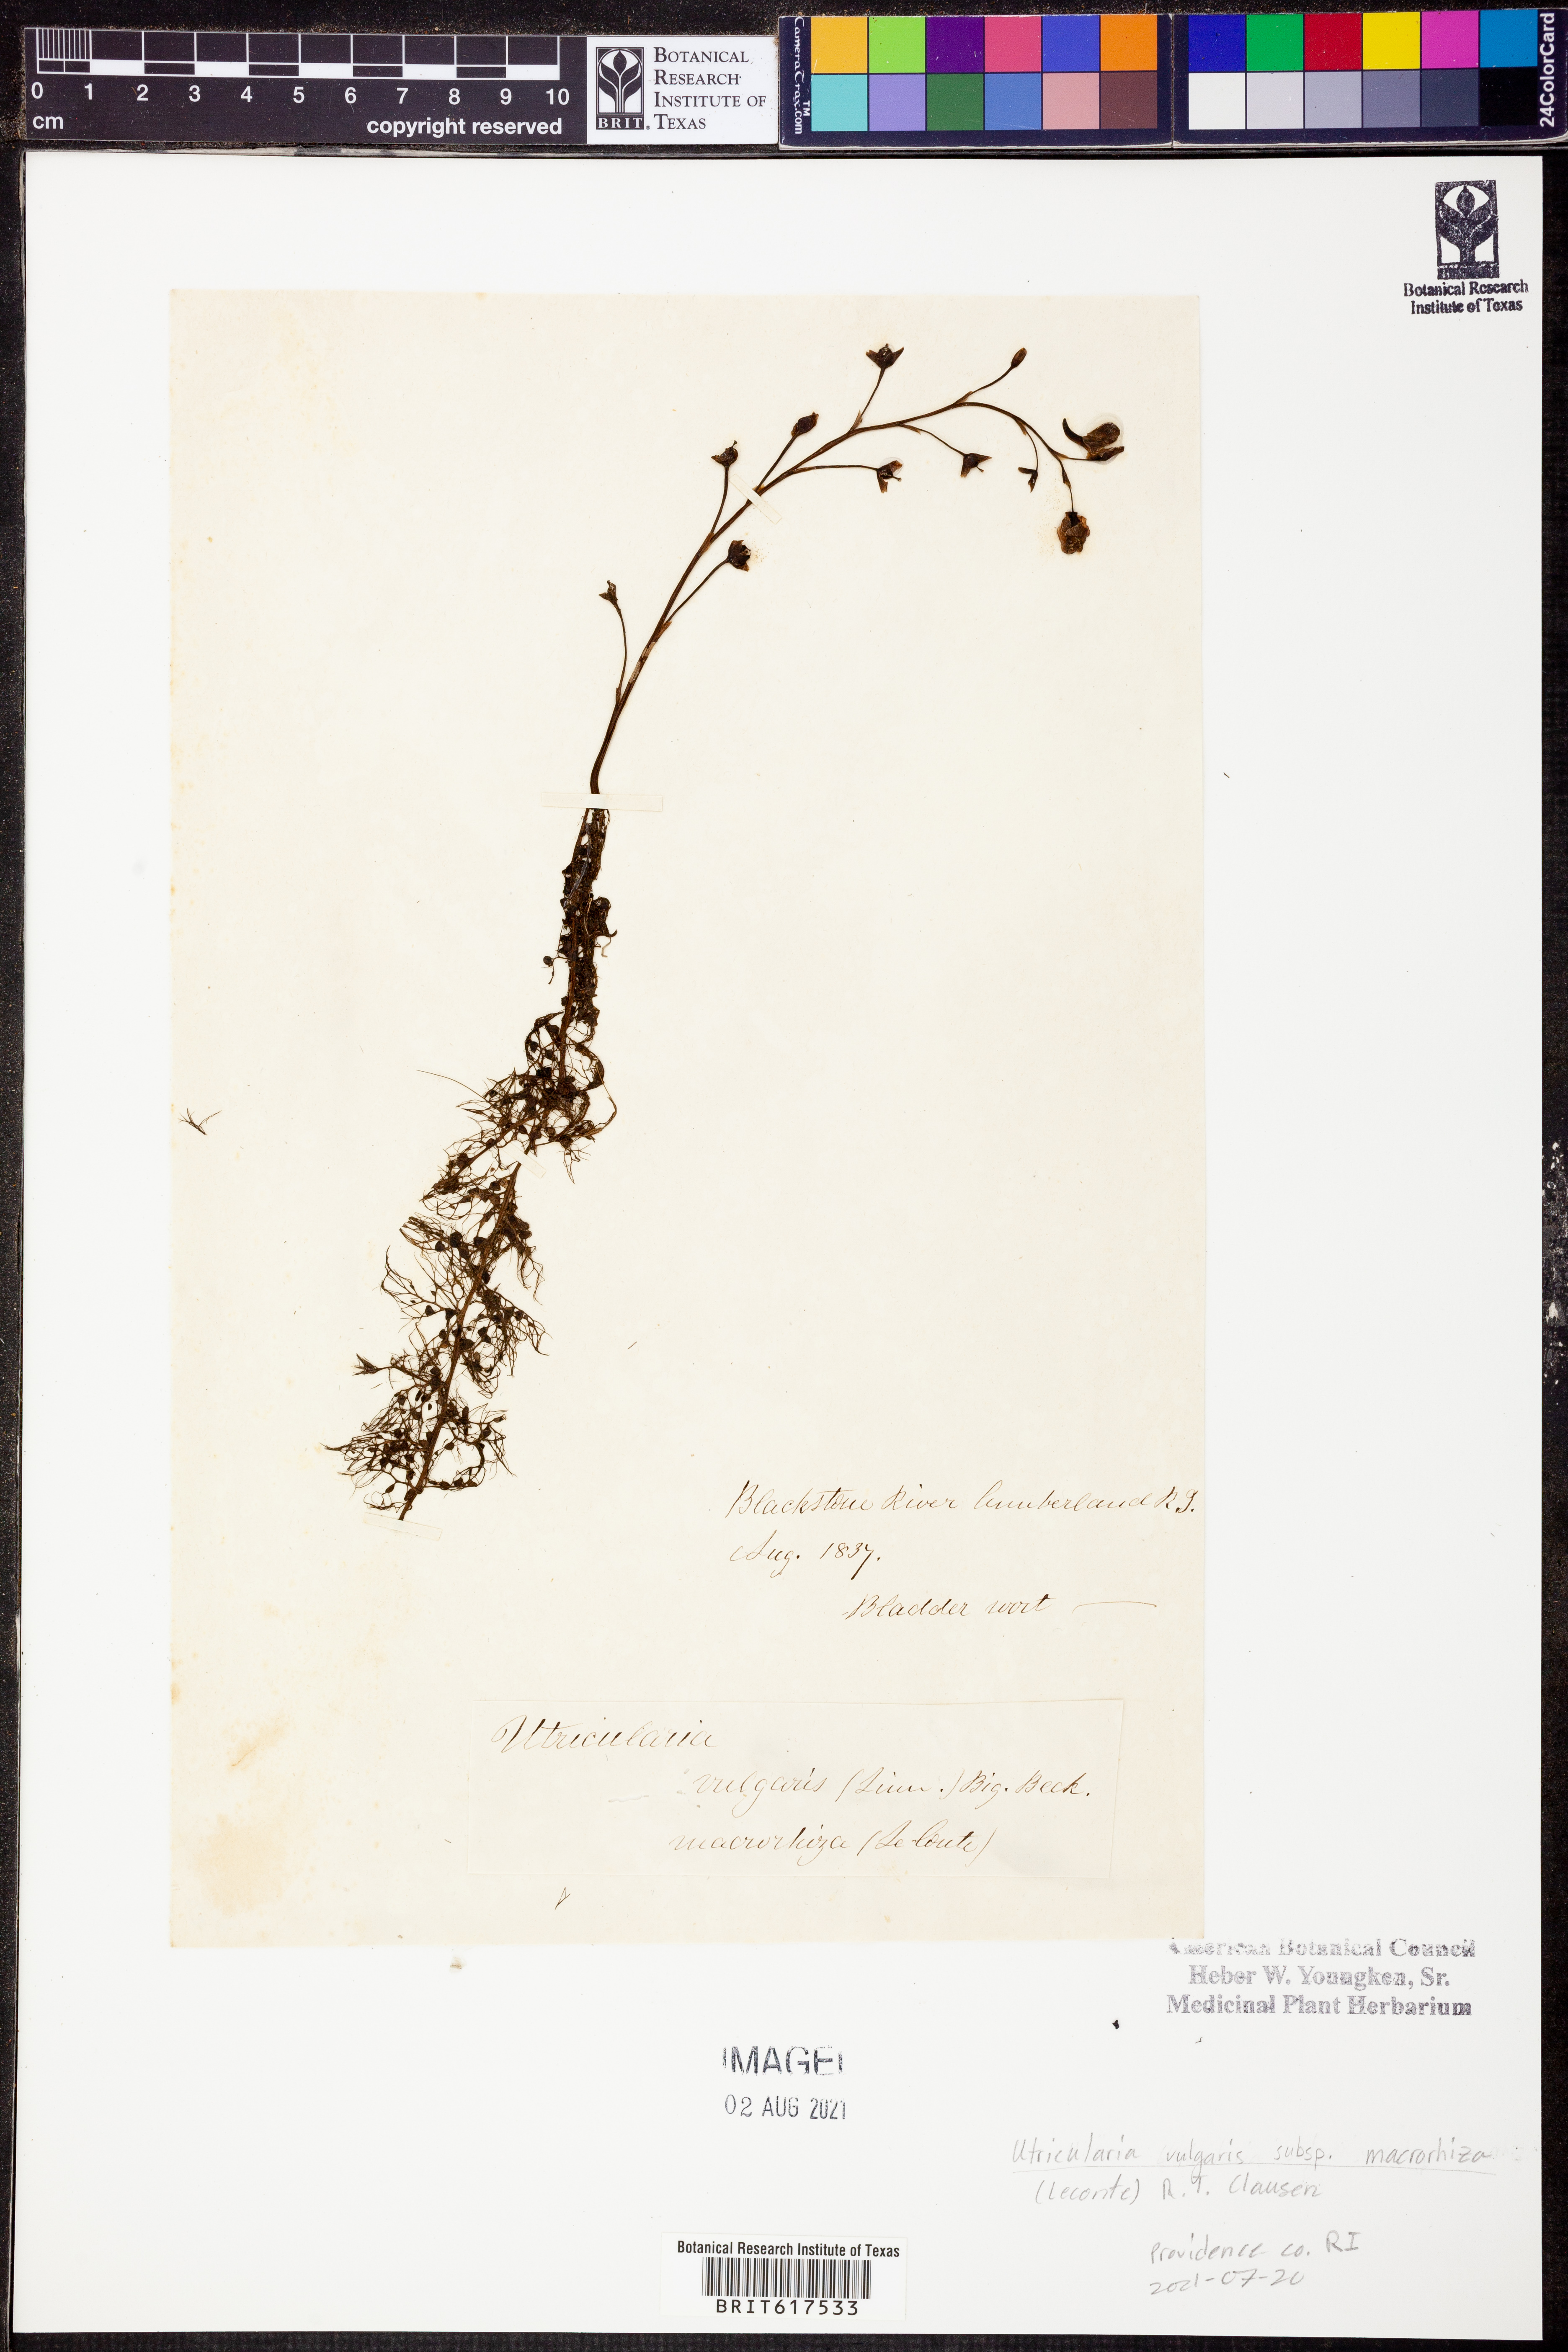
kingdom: Plantae
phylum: Tracheophyta
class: Magnoliopsida
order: Lamiales
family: Lentibulariaceae
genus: Utricularia
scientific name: Utricularia macrorhiza
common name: Common bladderwort
